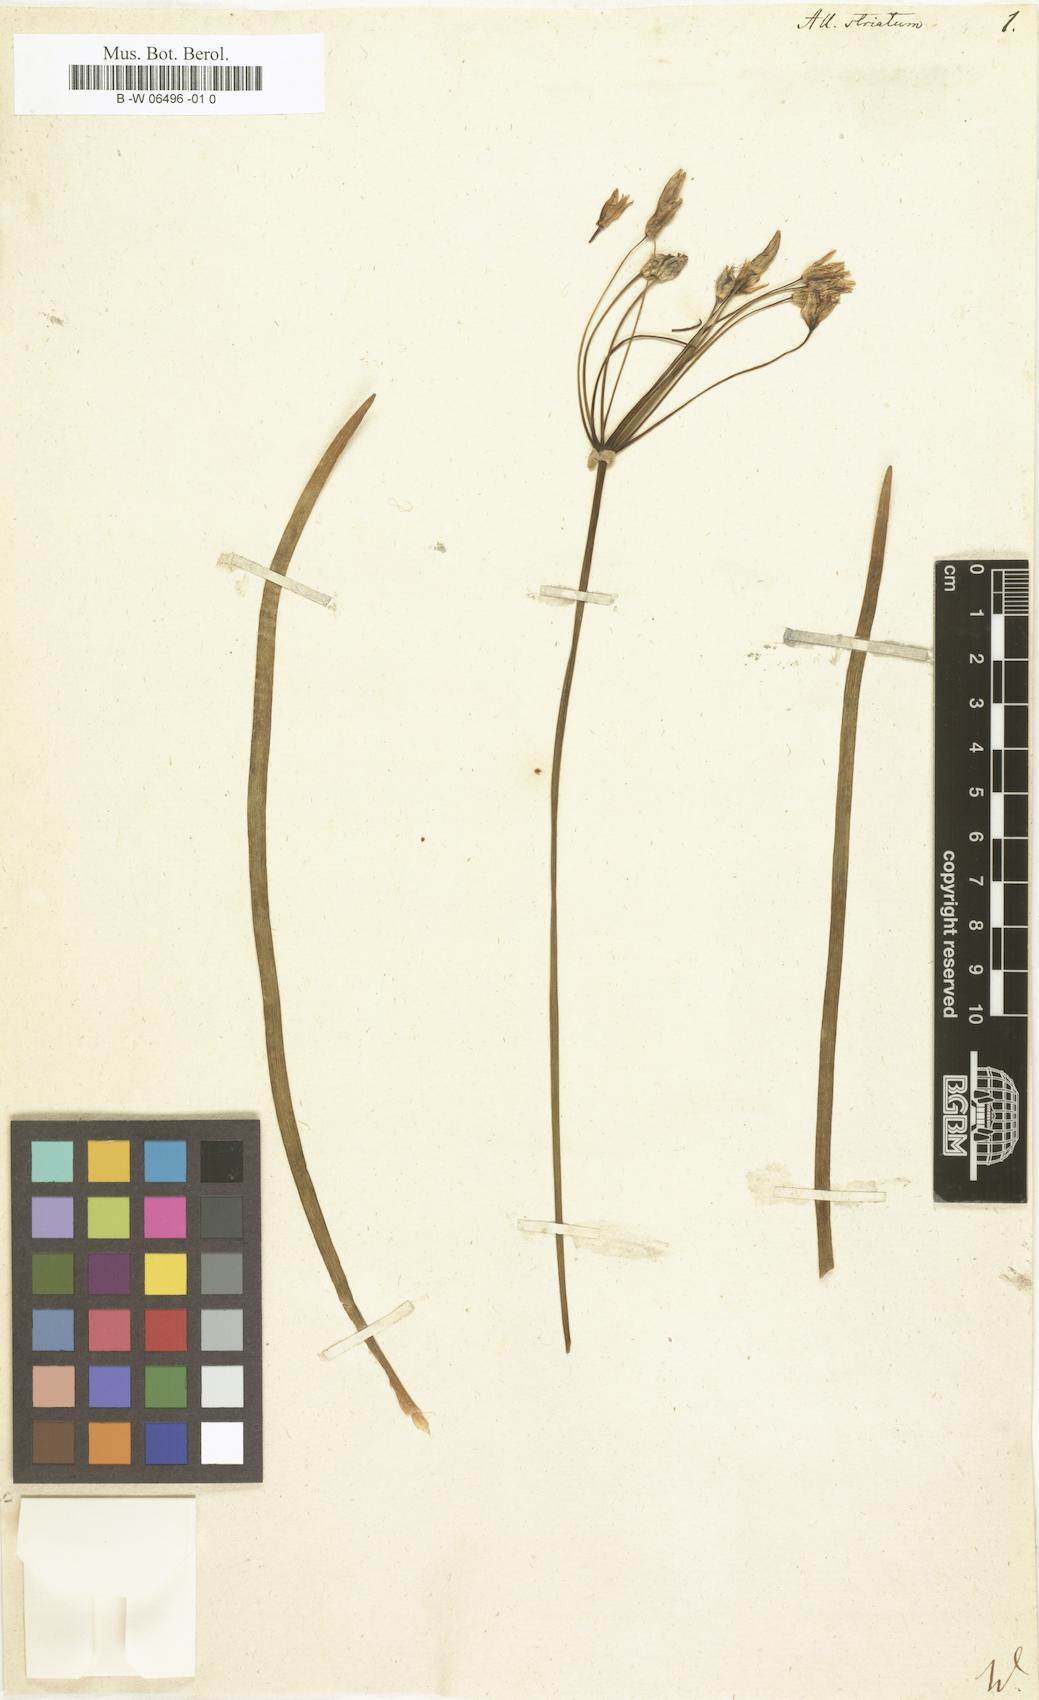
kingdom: Plantae
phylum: Tracheophyta
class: Liliopsida
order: Asparagales
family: Amaryllidaceae
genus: Nothoscordum
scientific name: Nothoscordum bivalve
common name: Crow-poison
